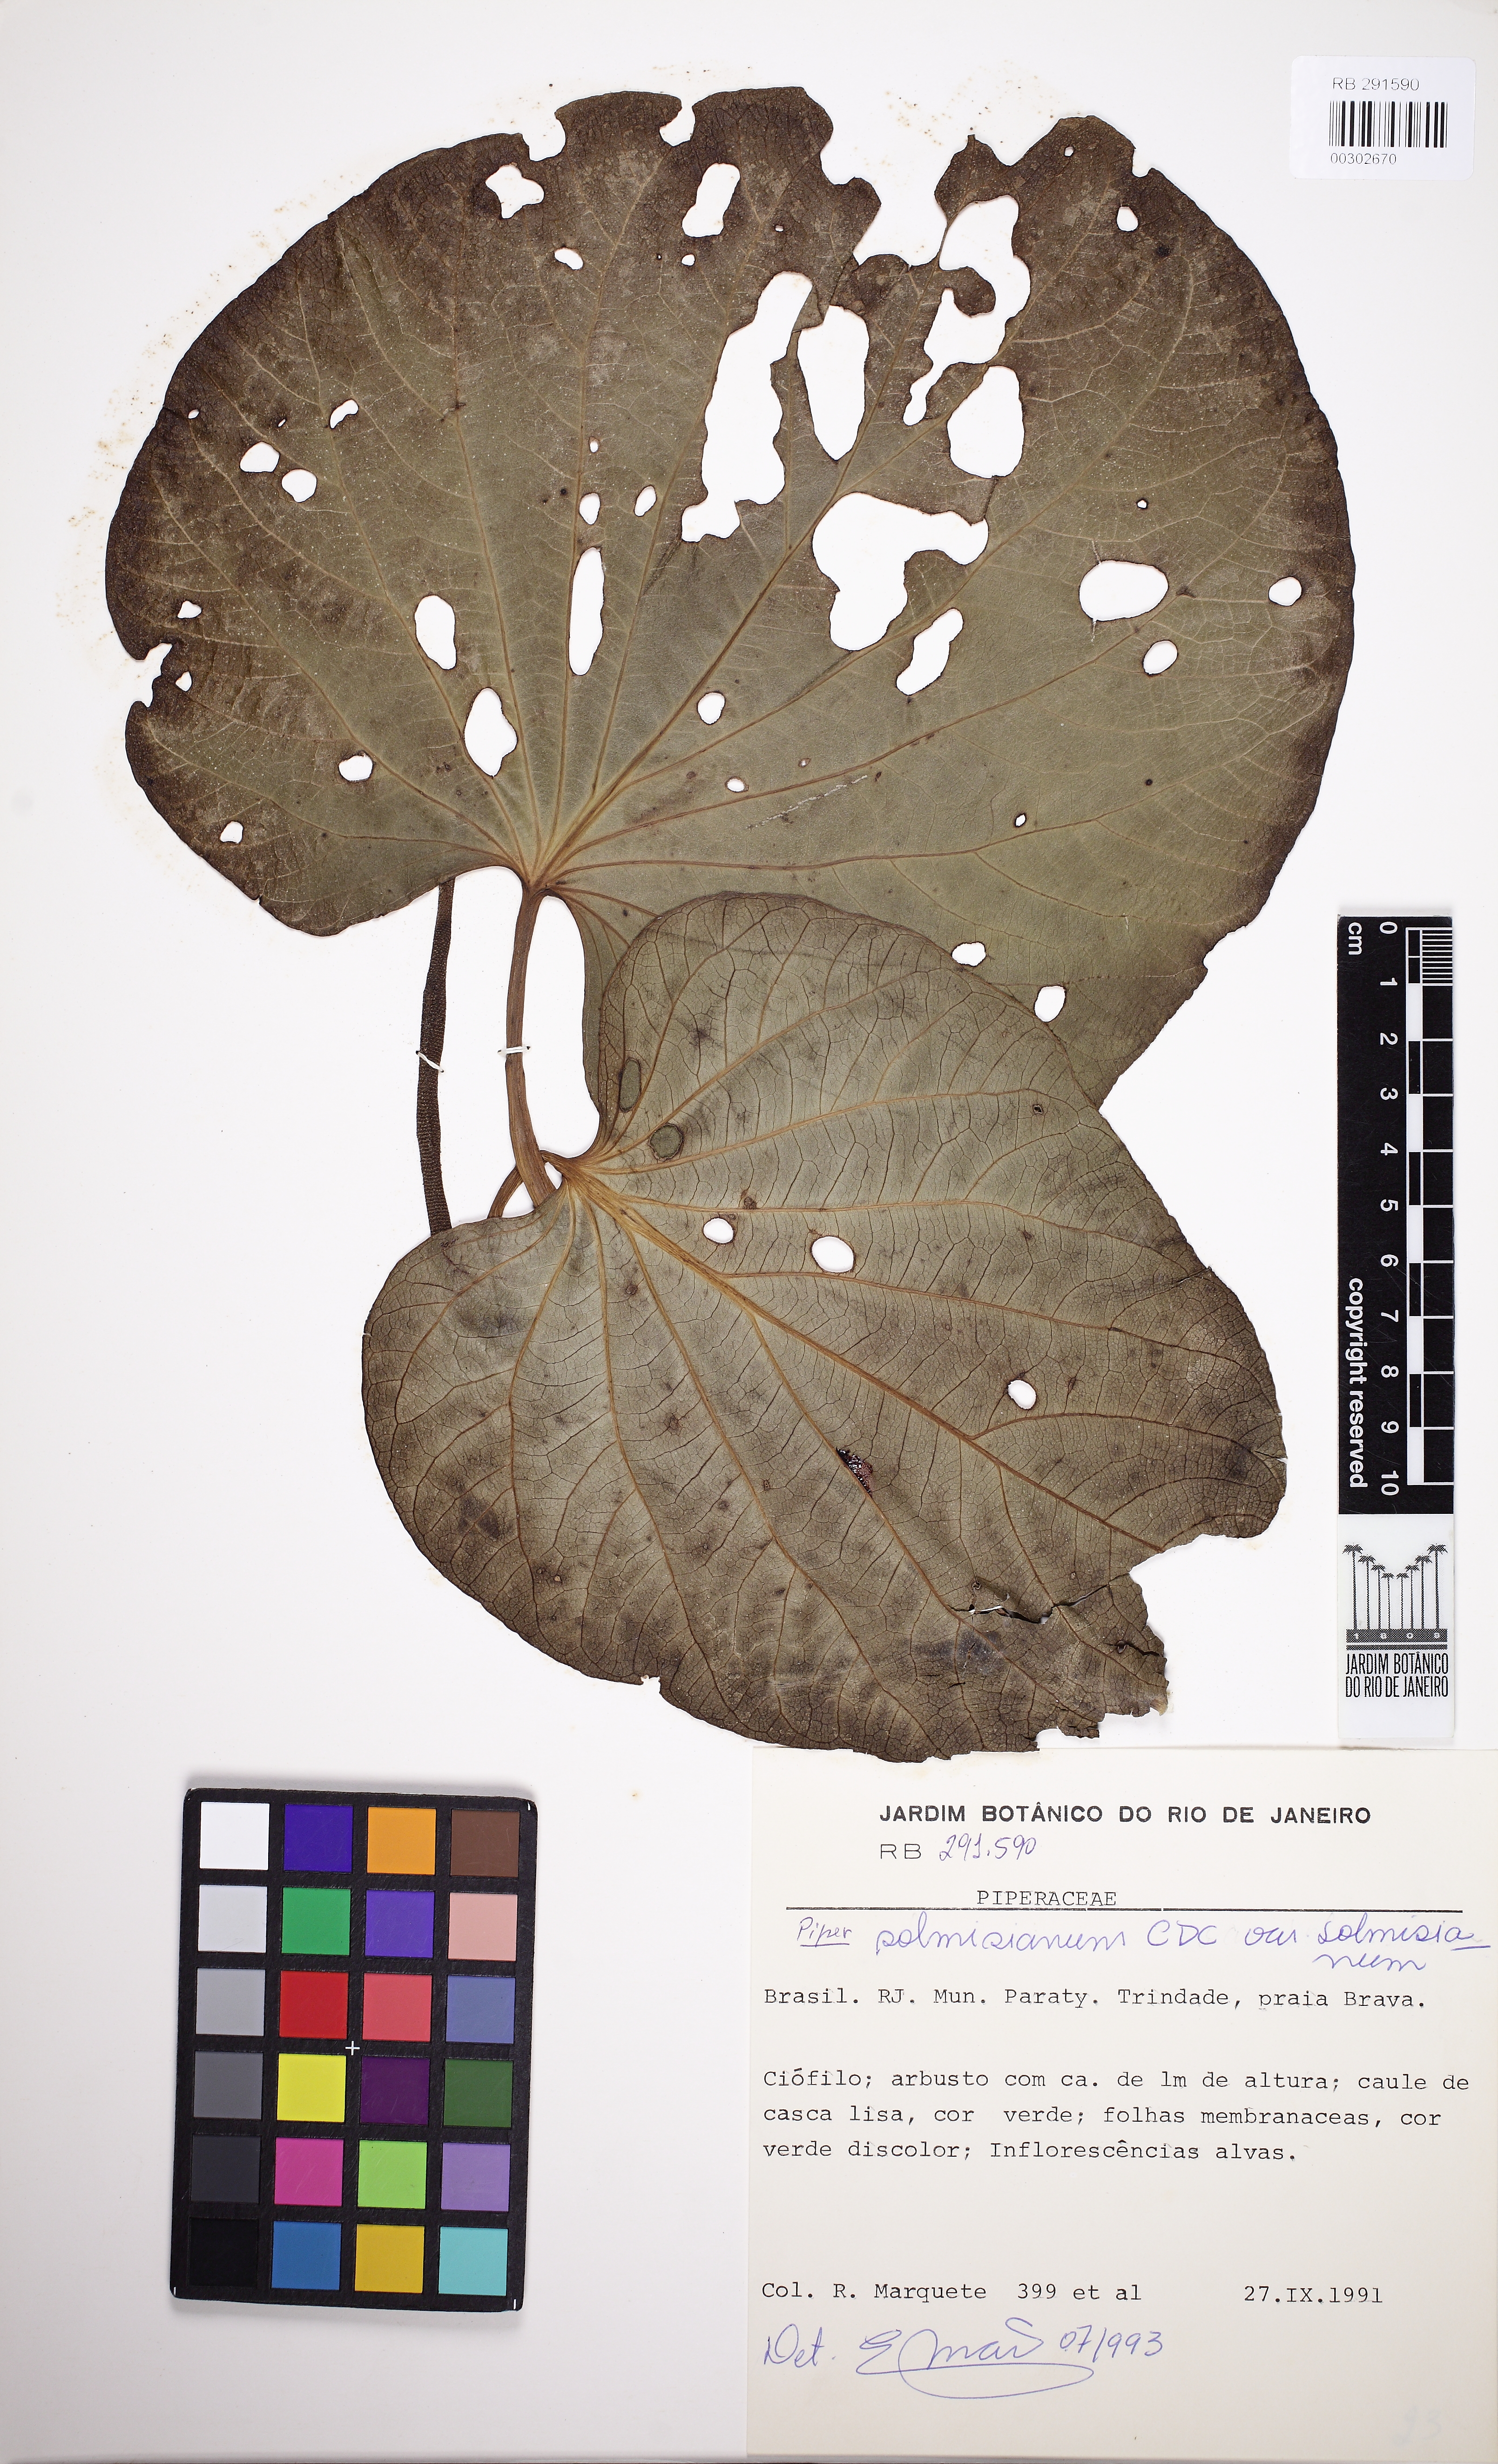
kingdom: Plantae
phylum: Tracheophyta
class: Magnoliopsida
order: Piperales
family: Piperaceae
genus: Piper
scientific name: Piper solmsianum
